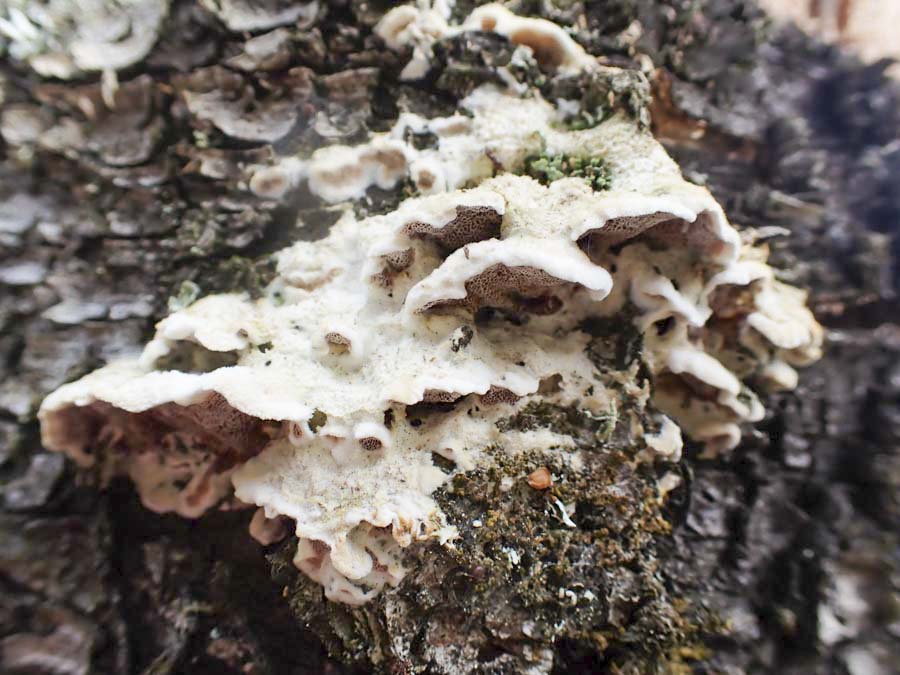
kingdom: Fungi
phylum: Basidiomycota
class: Agaricomycetes
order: Polyporales
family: Irpicaceae
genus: Vitreoporus
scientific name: Vitreoporus dichrous
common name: tofarvet foldporesvamp
